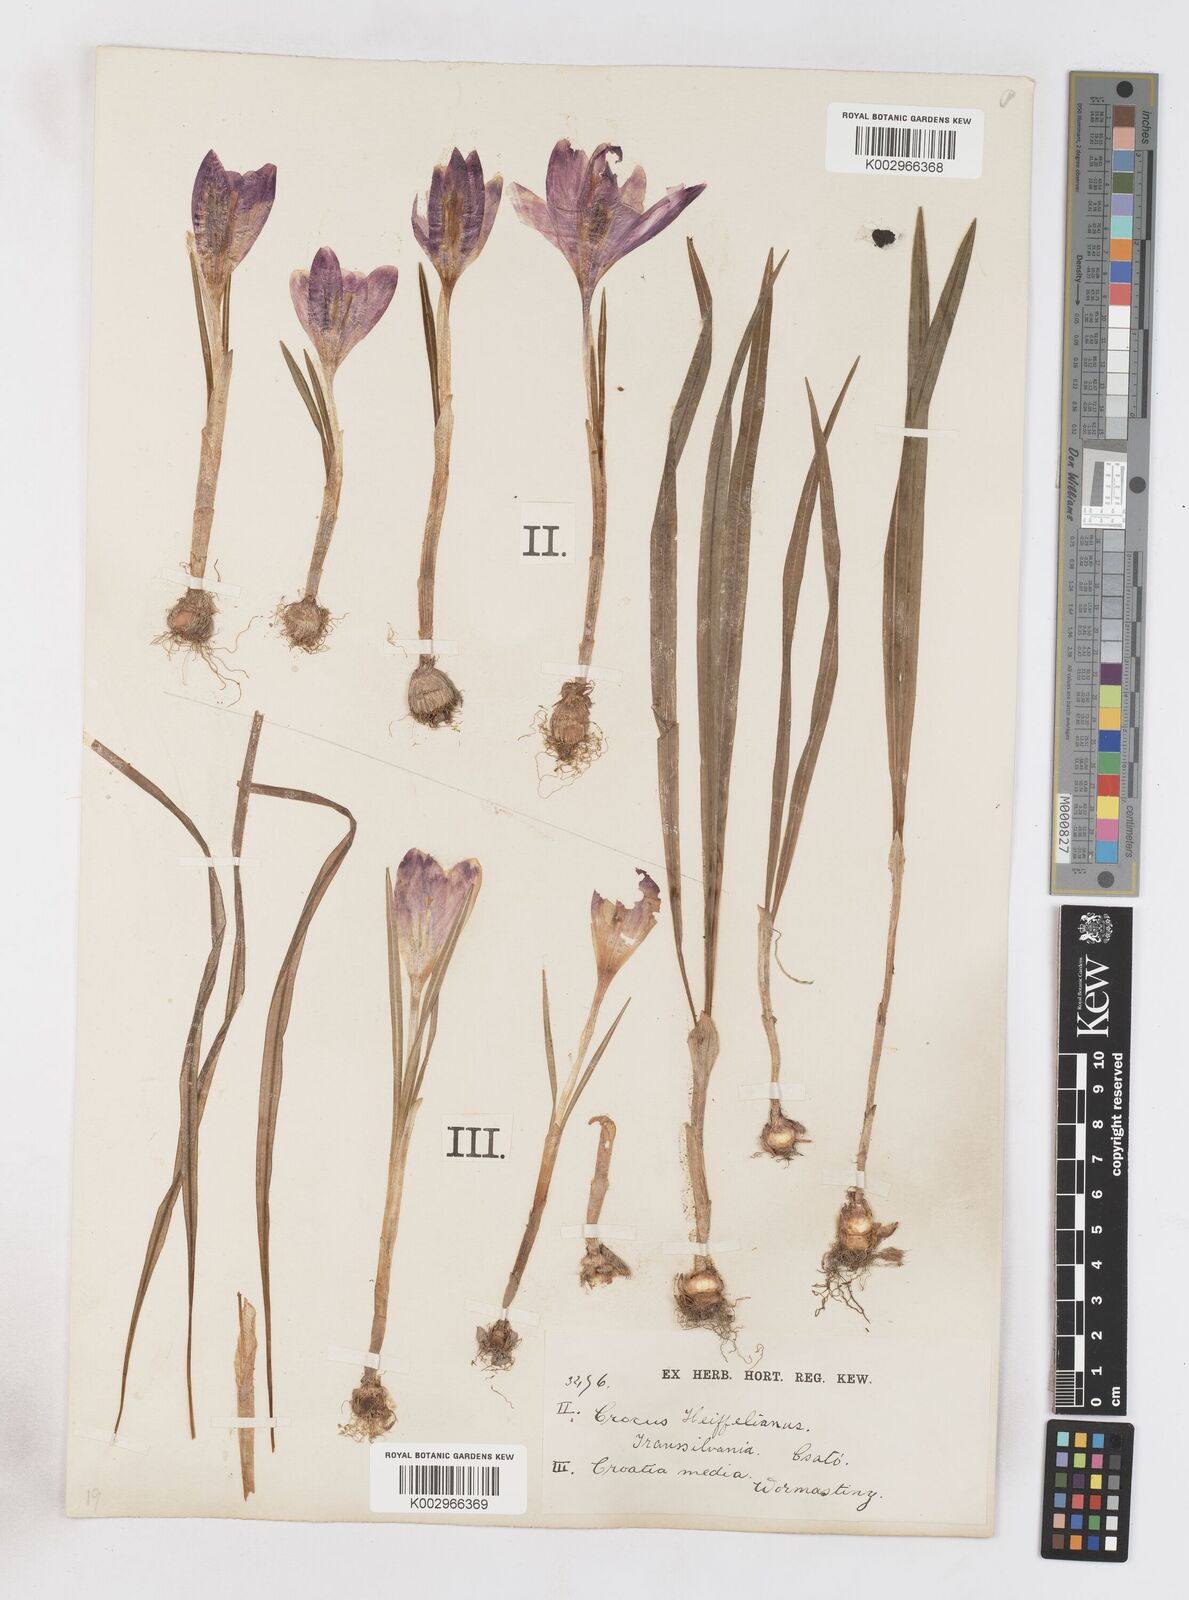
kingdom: Plantae
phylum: Tracheophyta
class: Liliopsida
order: Asparagales
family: Iridaceae
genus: Crocus
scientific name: Crocus vernus
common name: Spring crocus
